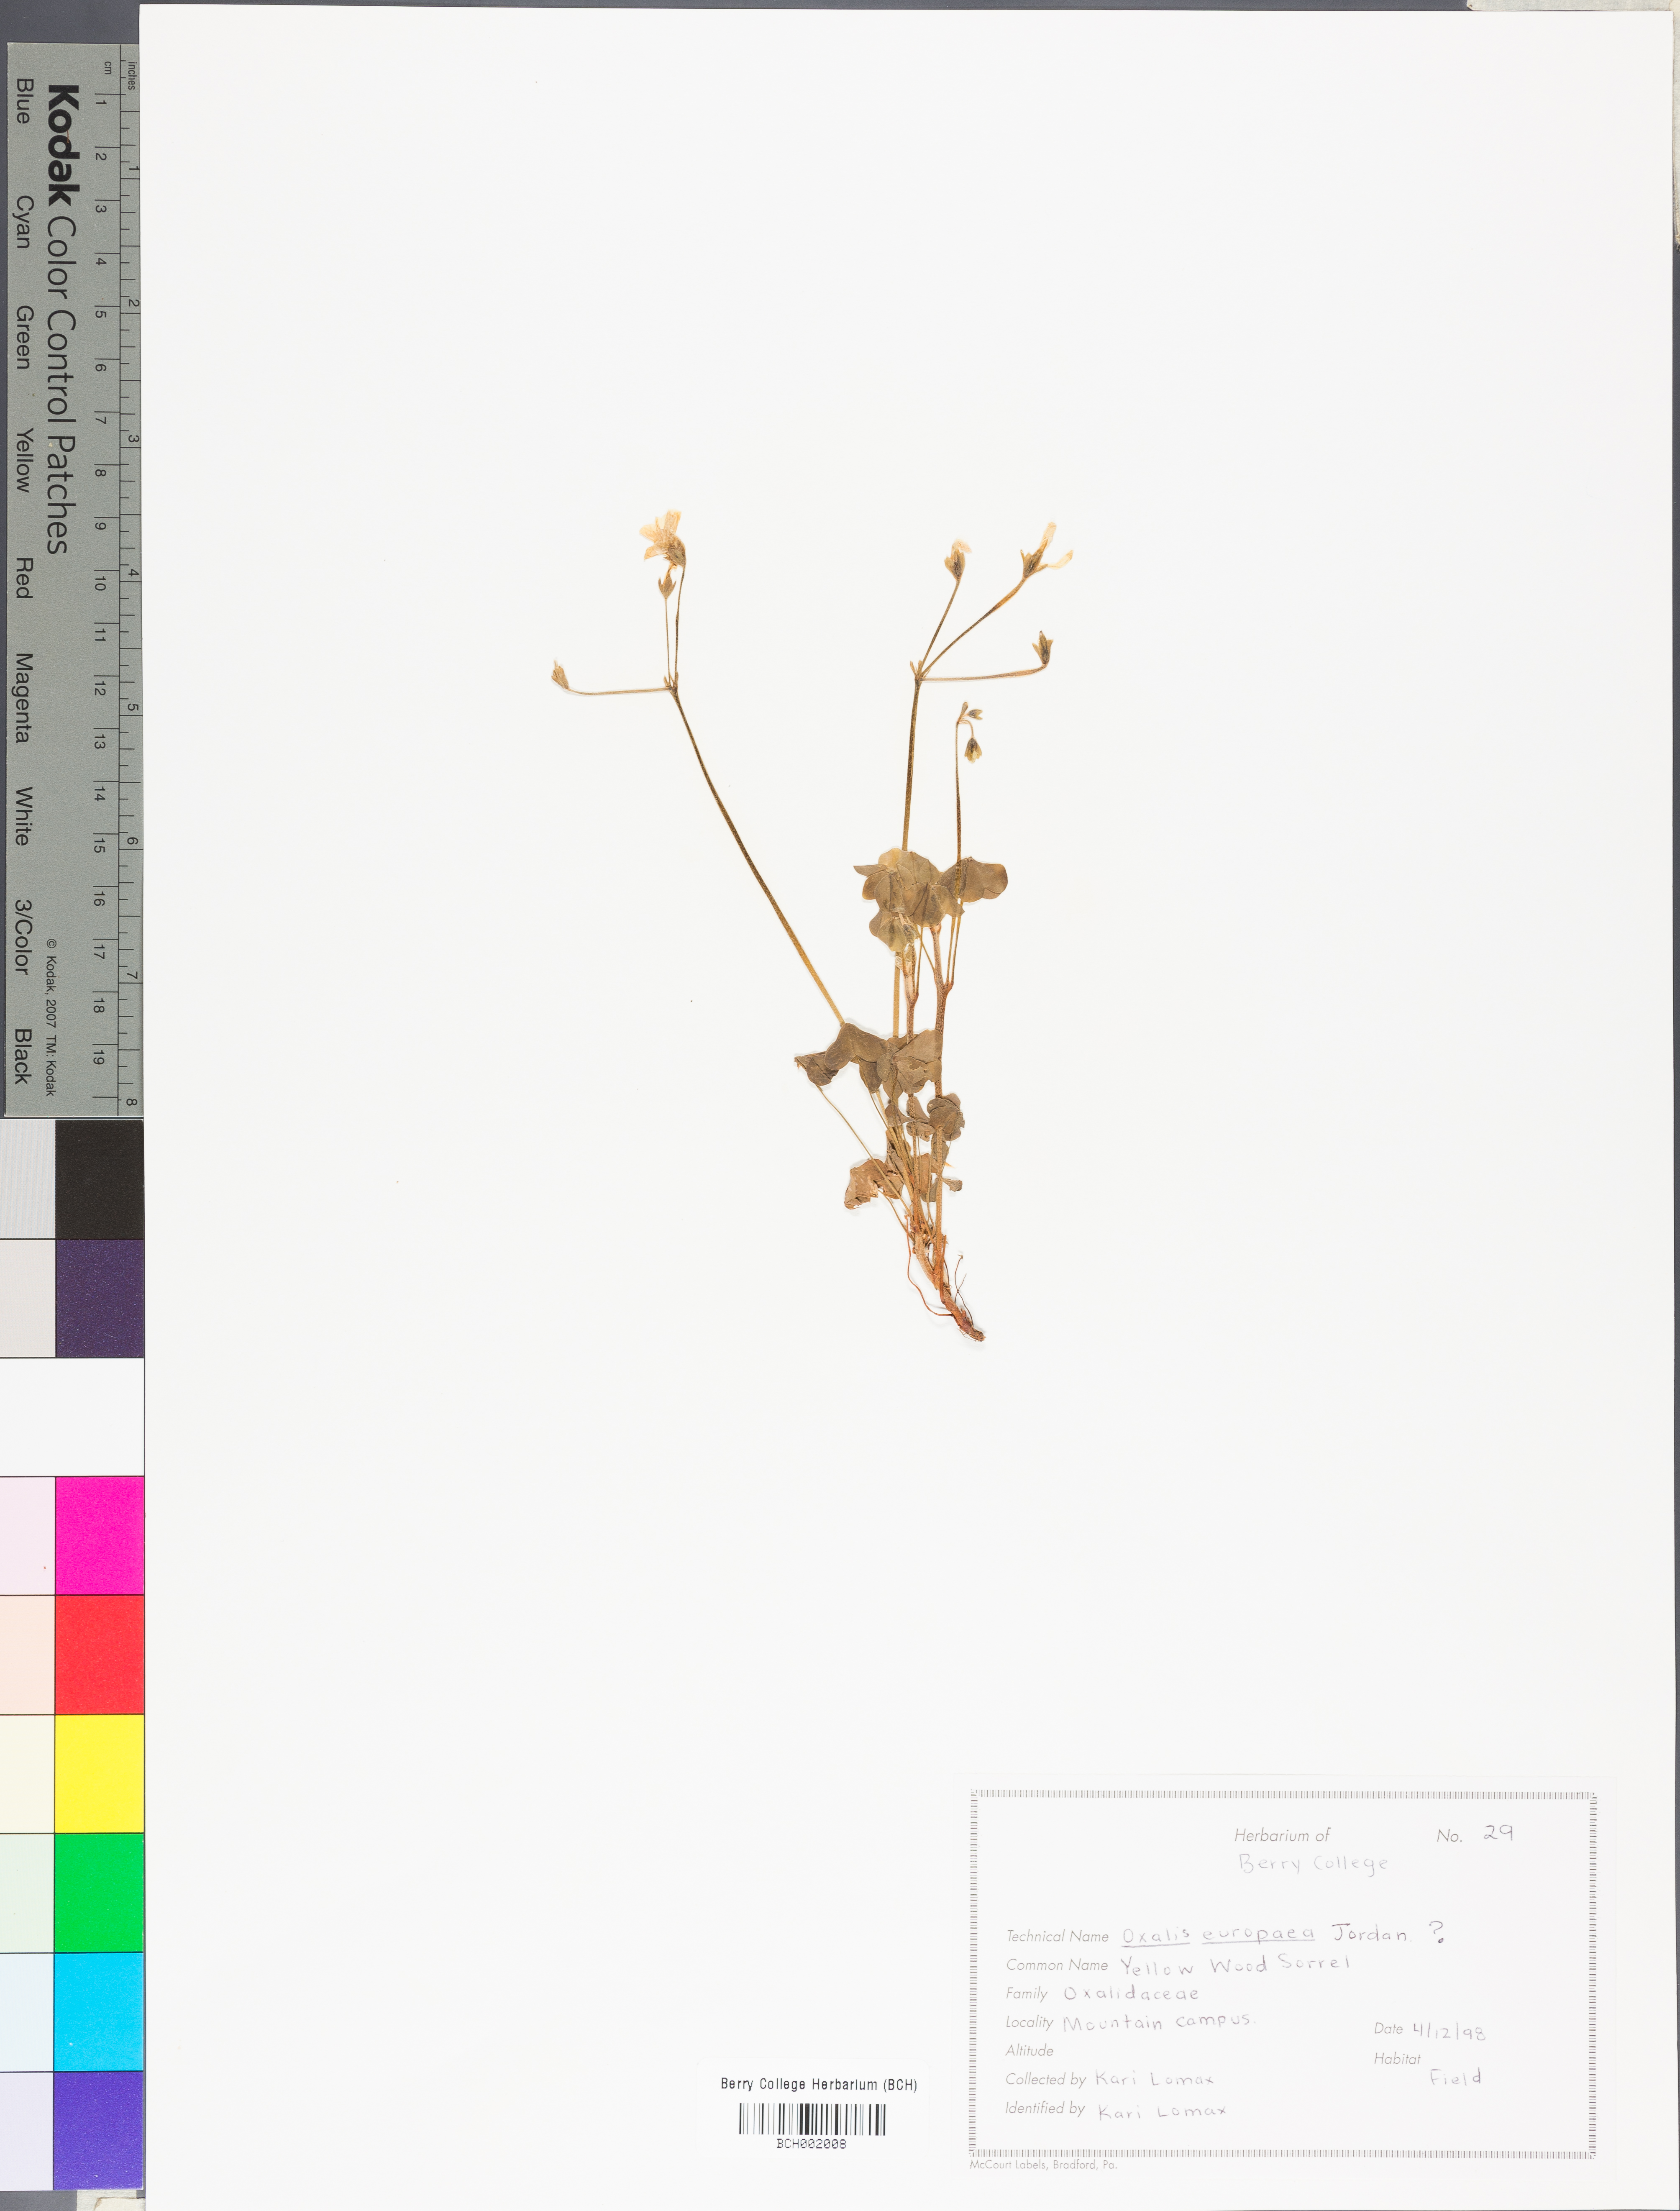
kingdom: Plantae
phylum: Tracheophyta
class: Magnoliopsida
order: Oxalidales
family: Oxalidaceae
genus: Oxalis
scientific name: Oxalis stricta
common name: Upright yellow-sorrel
